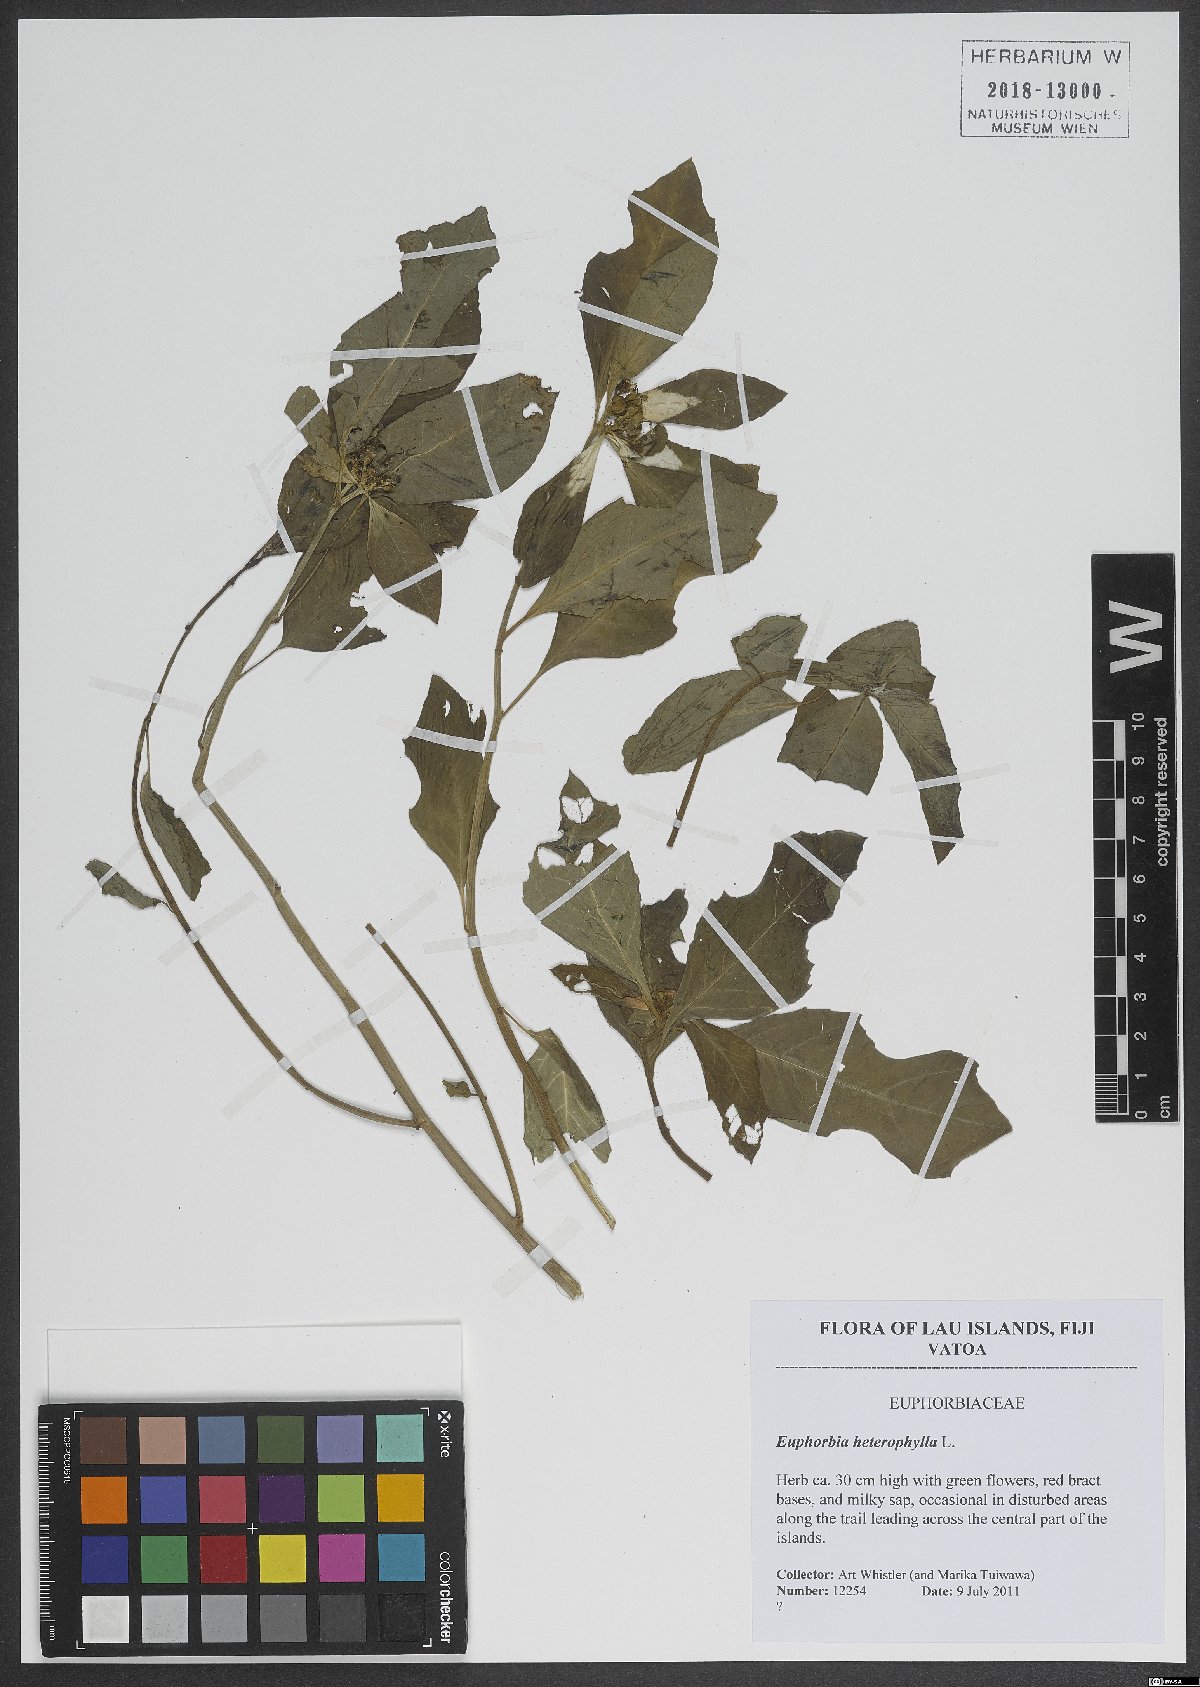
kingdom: Plantae
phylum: Tracheophyta
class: Magnoliopsida
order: Malpighiales
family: Euphorbiaceae
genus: Euphorbia
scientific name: Euphorbia heterophylla
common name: Mexican fireplant
